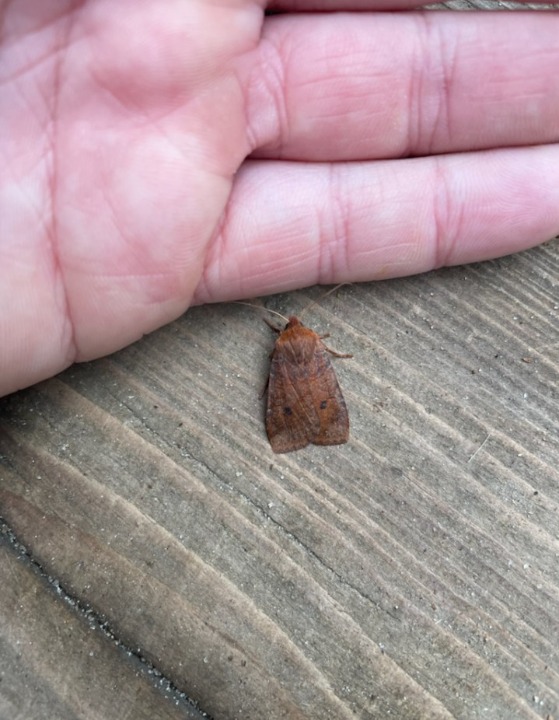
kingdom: Animalia
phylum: Arthropoda
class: Insecta
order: Lepidoptera
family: Noctuidae
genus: Conistra
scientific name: Conistra vaccinii
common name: Blåbærugle
